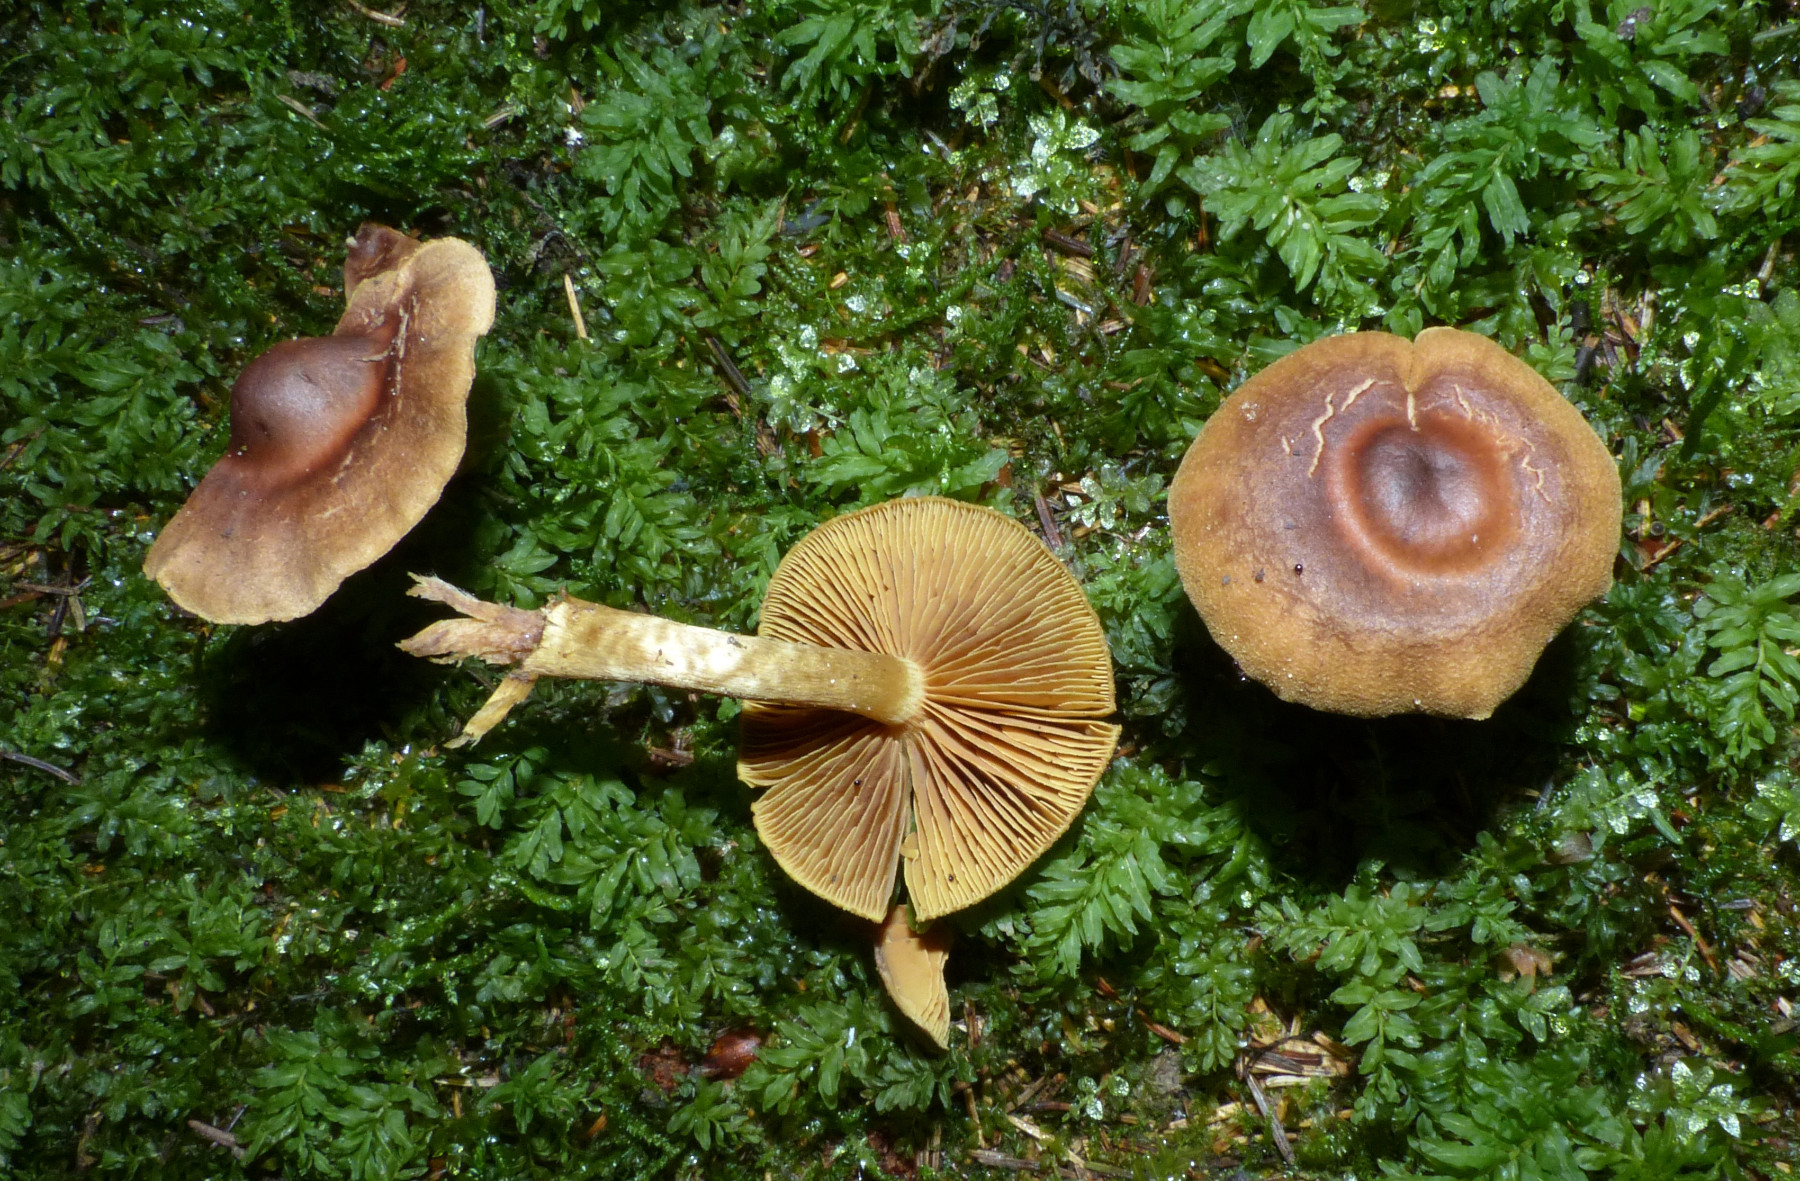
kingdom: Fungi
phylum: Basidiomycota
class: Agaricomycetes
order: Agaricales
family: Cortinariaceae
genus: Cortinarius
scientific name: Cortinarius
